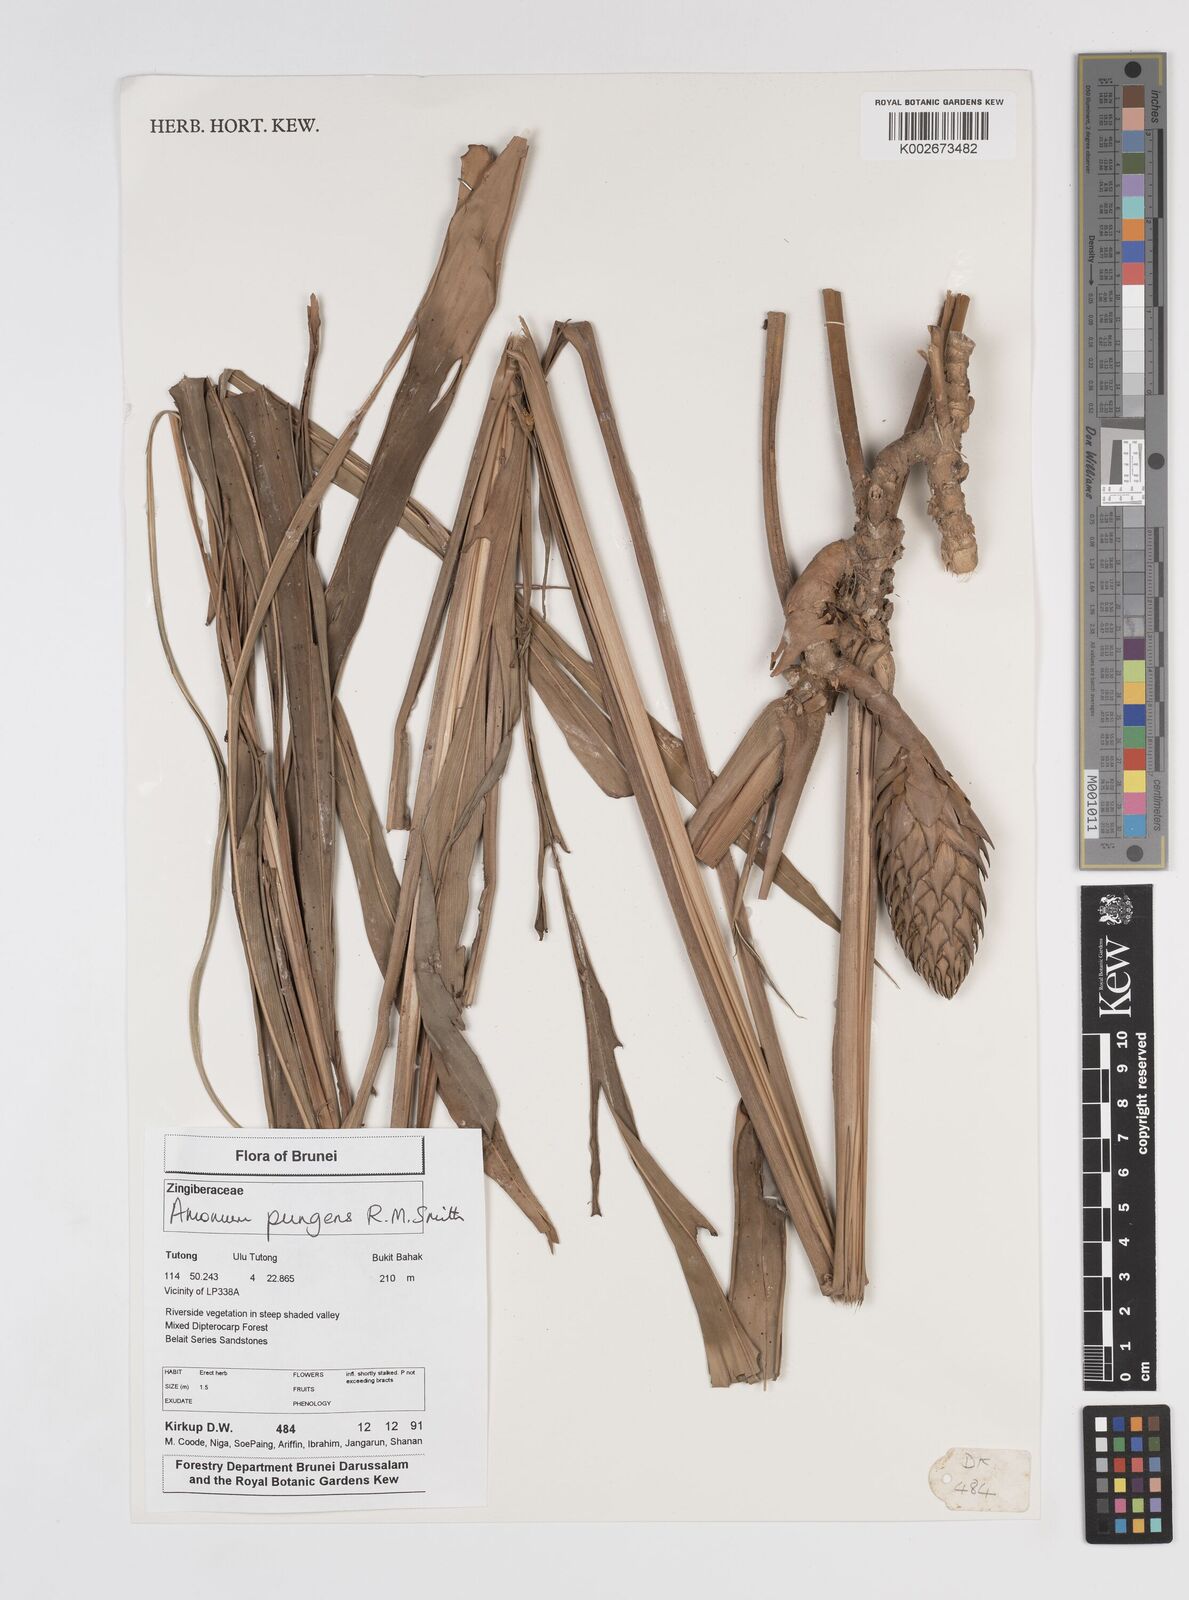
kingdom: Plantae
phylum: Tracheophyta
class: Liliopsida
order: Zingiberales
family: Zingiberaceae
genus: Epiamomum
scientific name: Epiamomum pungens
